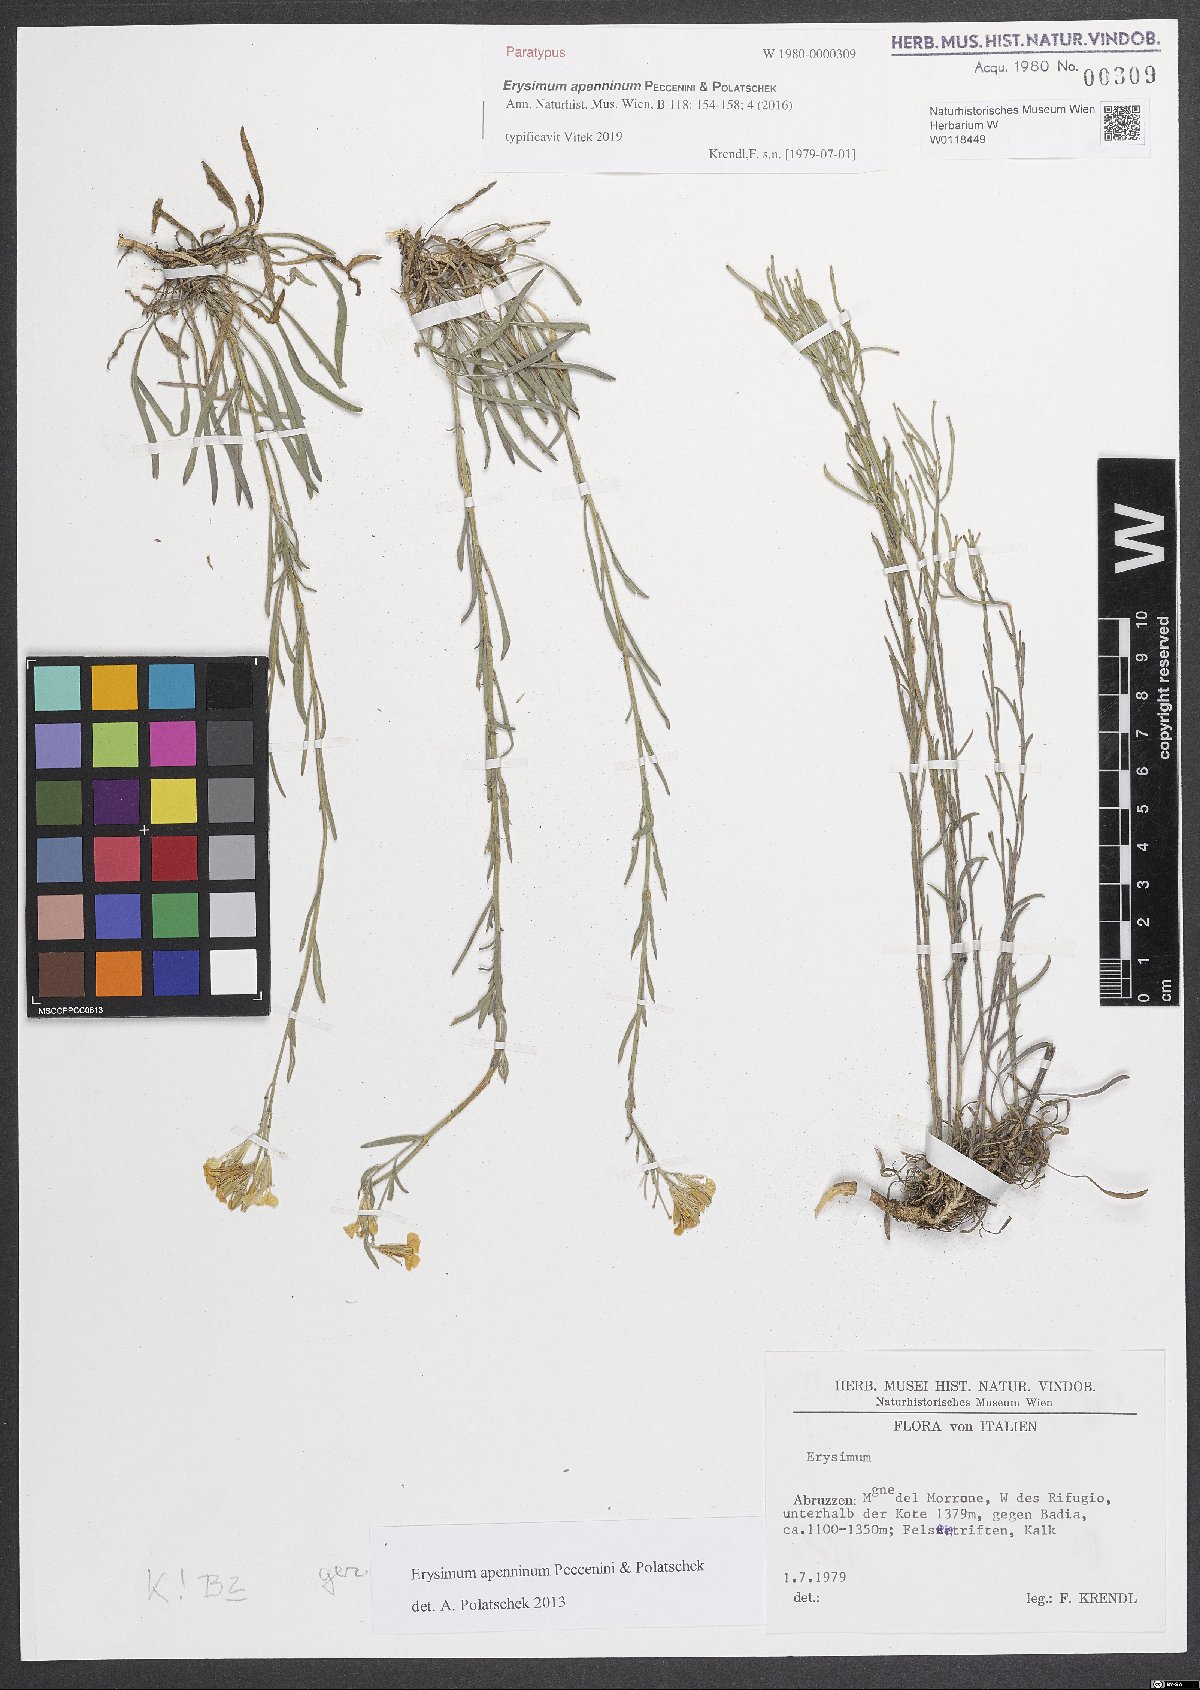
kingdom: Plantae
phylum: Tracheophyta
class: Magnoliopsida
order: Brassicales
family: Brassicaceae
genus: Erysimum
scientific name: Erysimum apenninum
